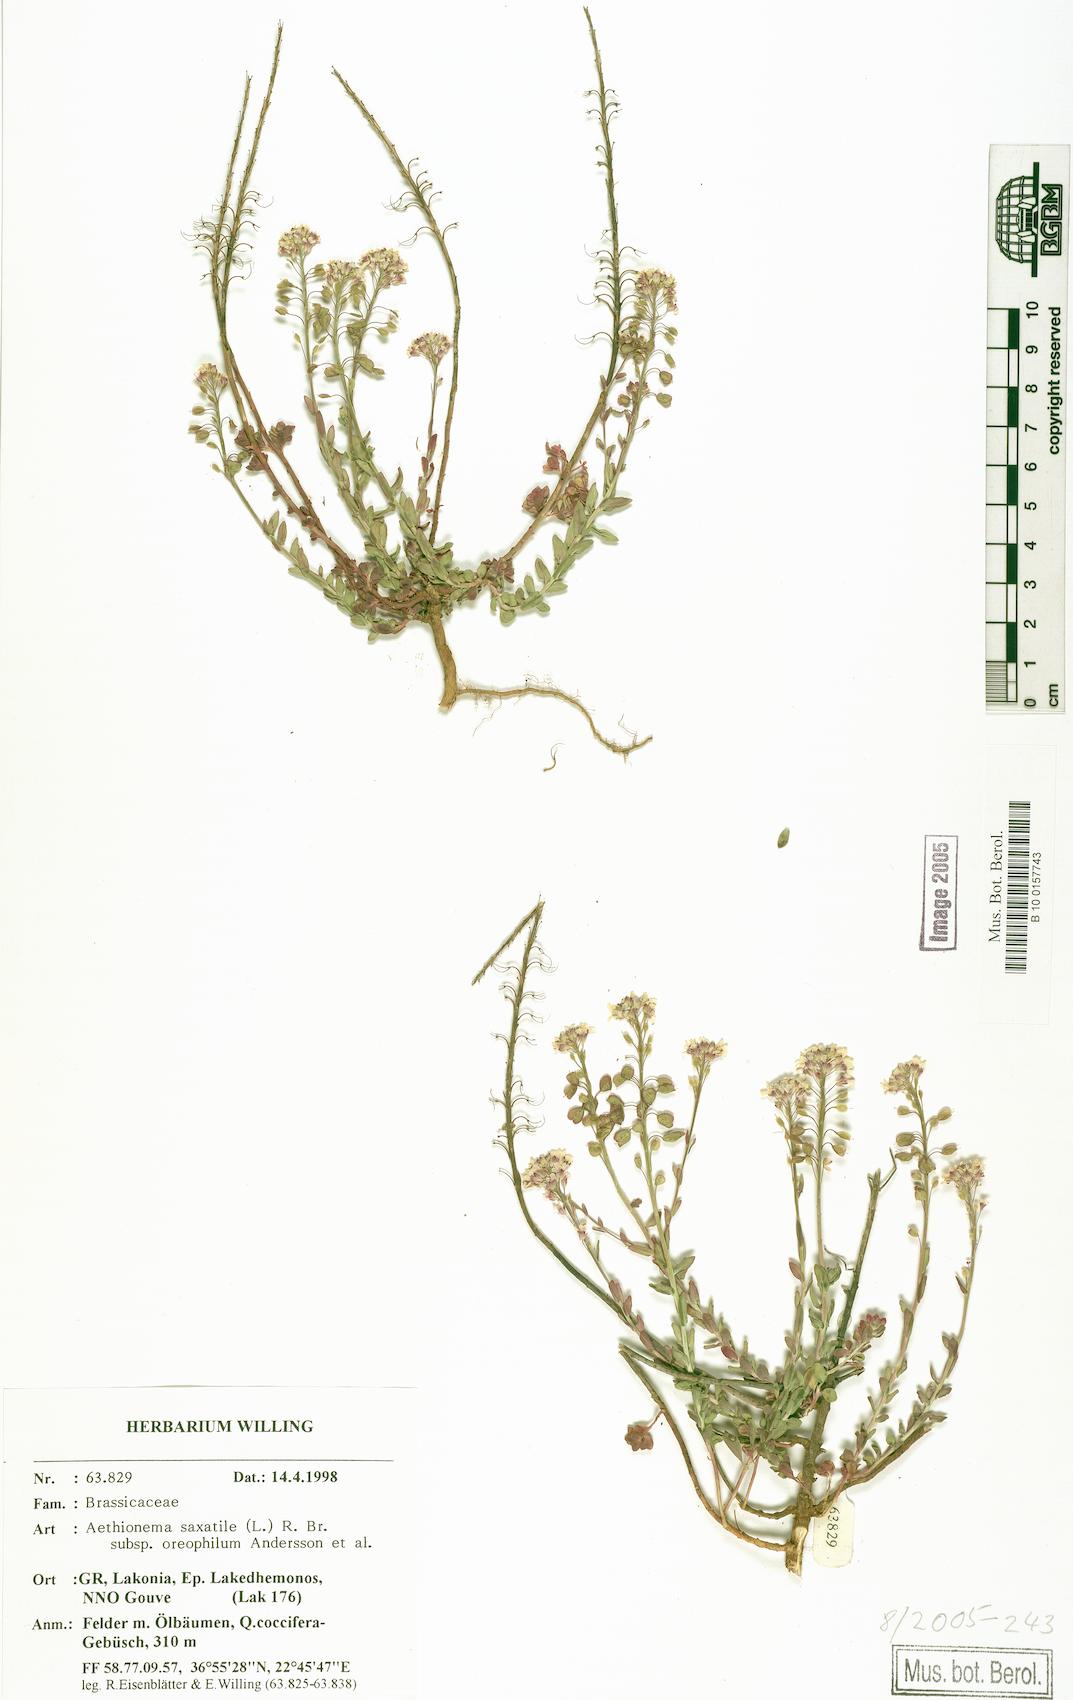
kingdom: Plantae
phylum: Tracheophyta
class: Magnoliopsida
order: Brassicales
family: Brassicaceae
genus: Aethionema
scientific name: Aethionema saxatile
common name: Burnt candytuft
